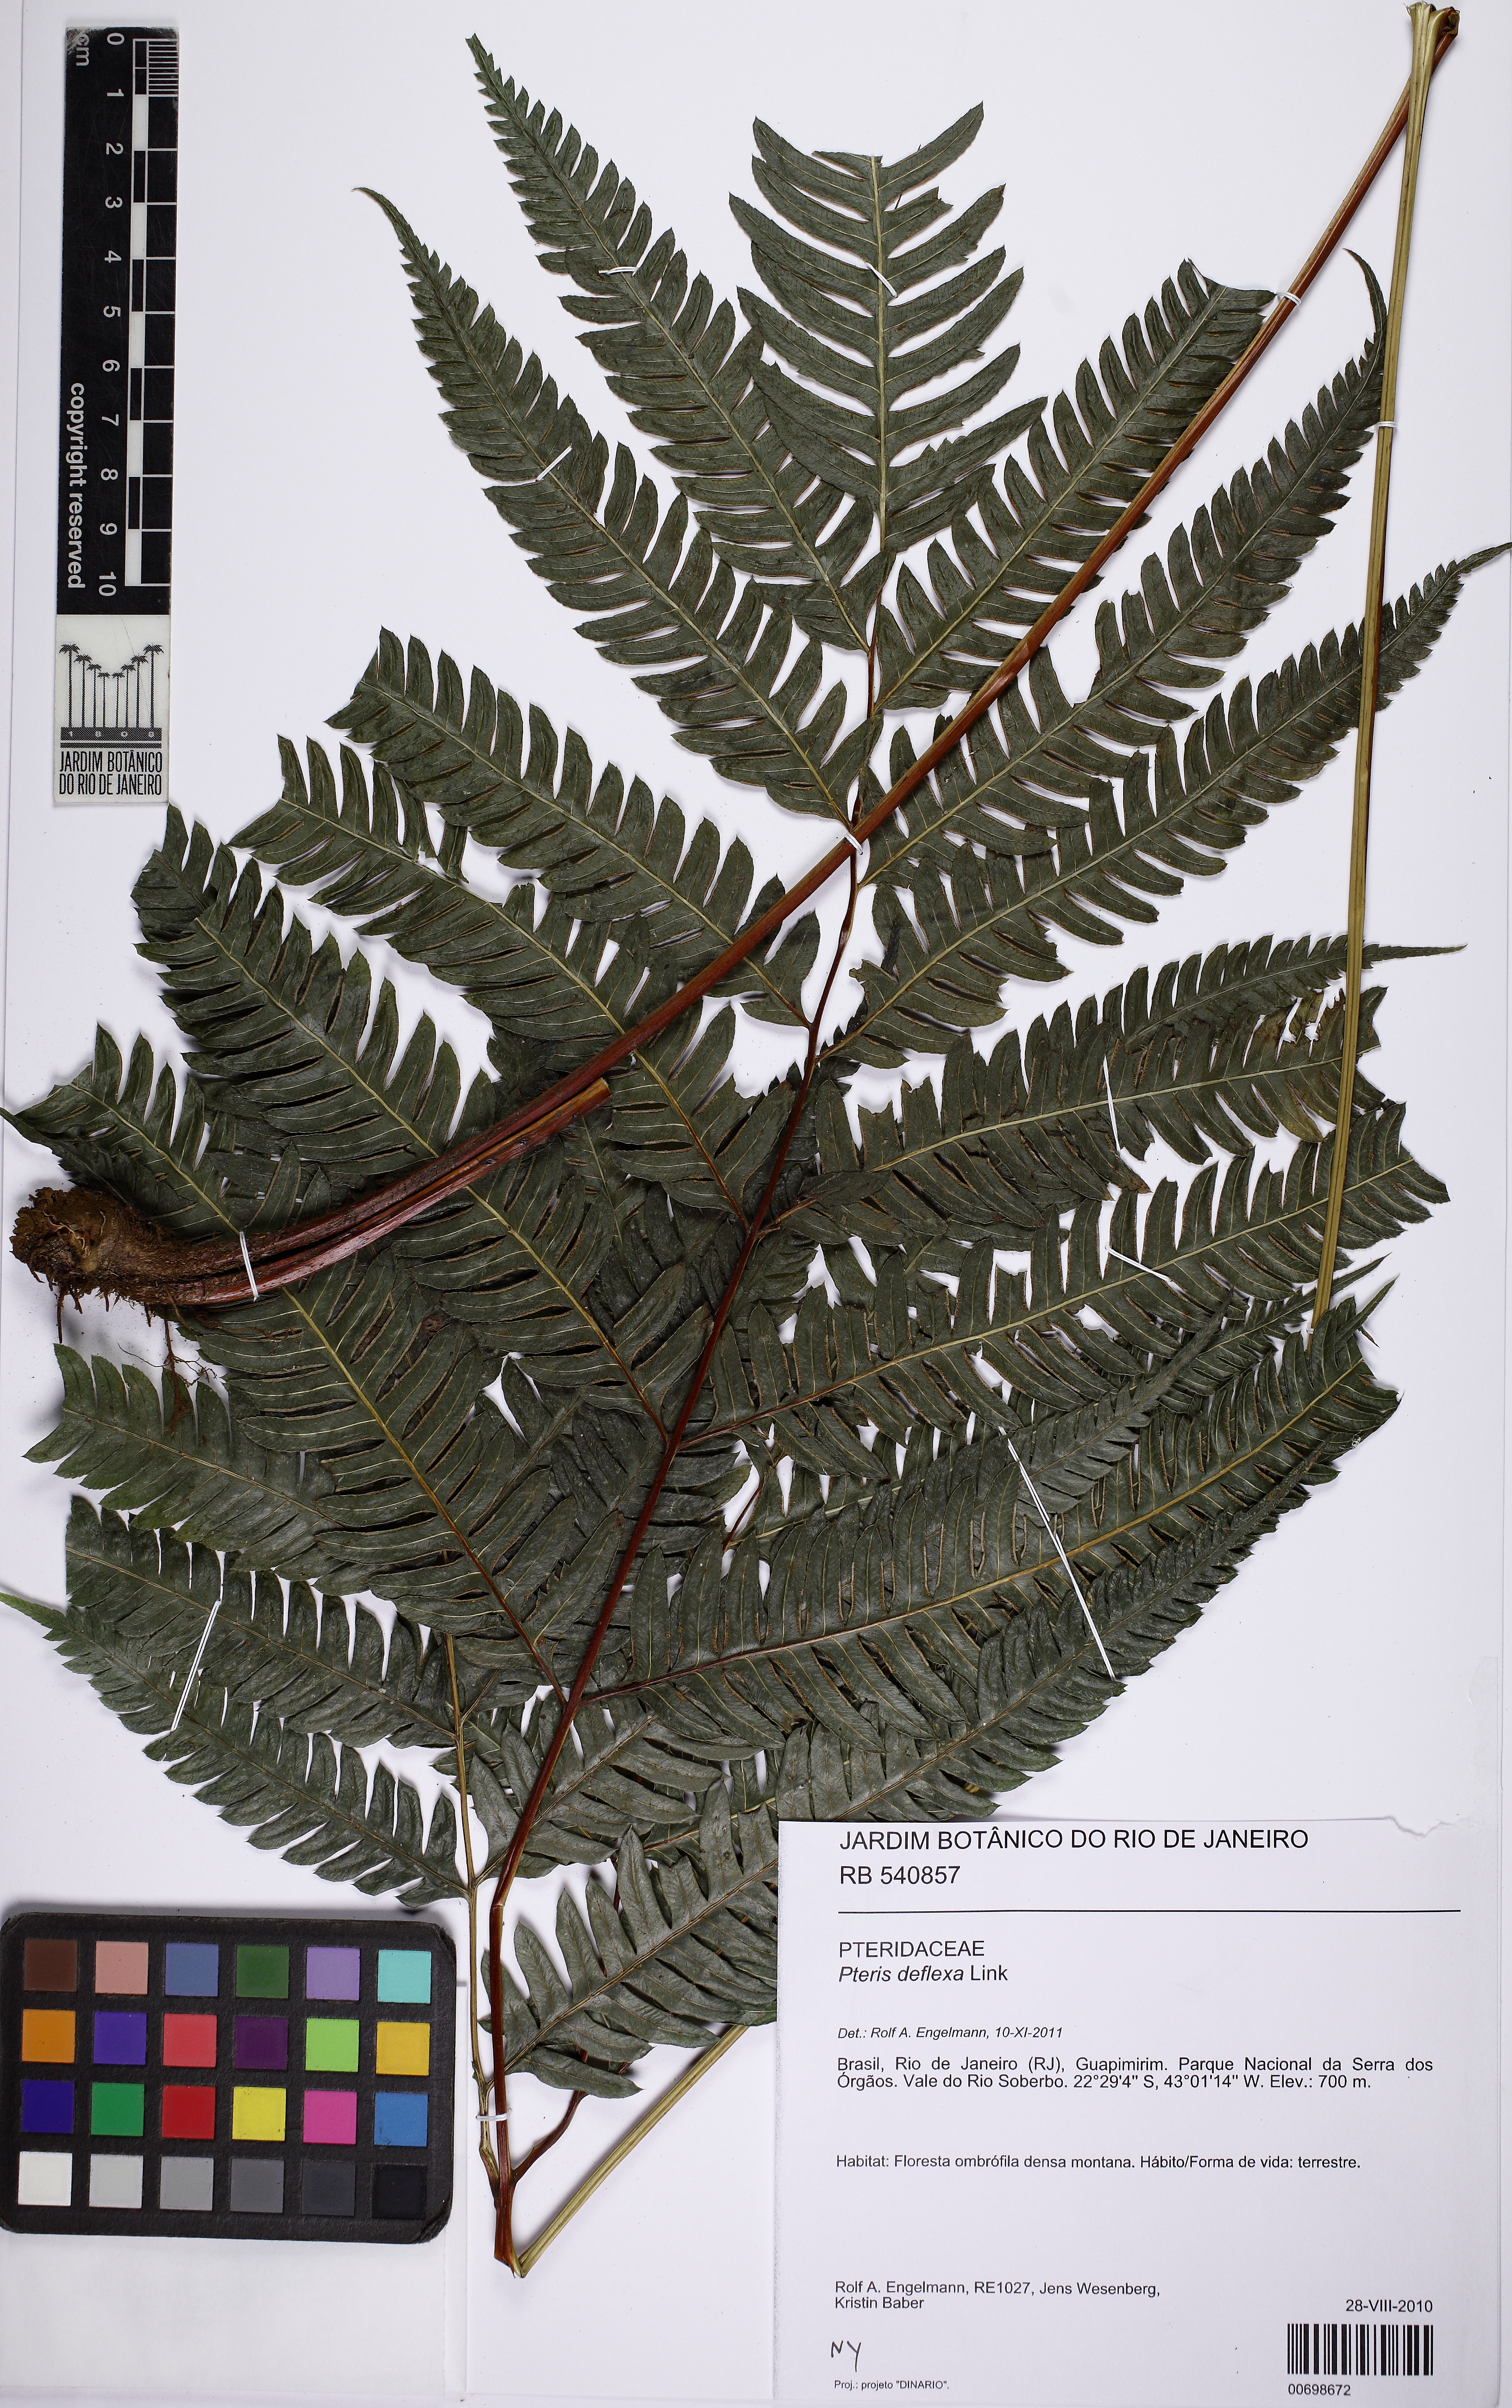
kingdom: Plantae
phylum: Tracheophyta
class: Polypodiopsida
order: Polypodiales
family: Pteridaceae
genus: Pteris
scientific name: Pteris deflexa
